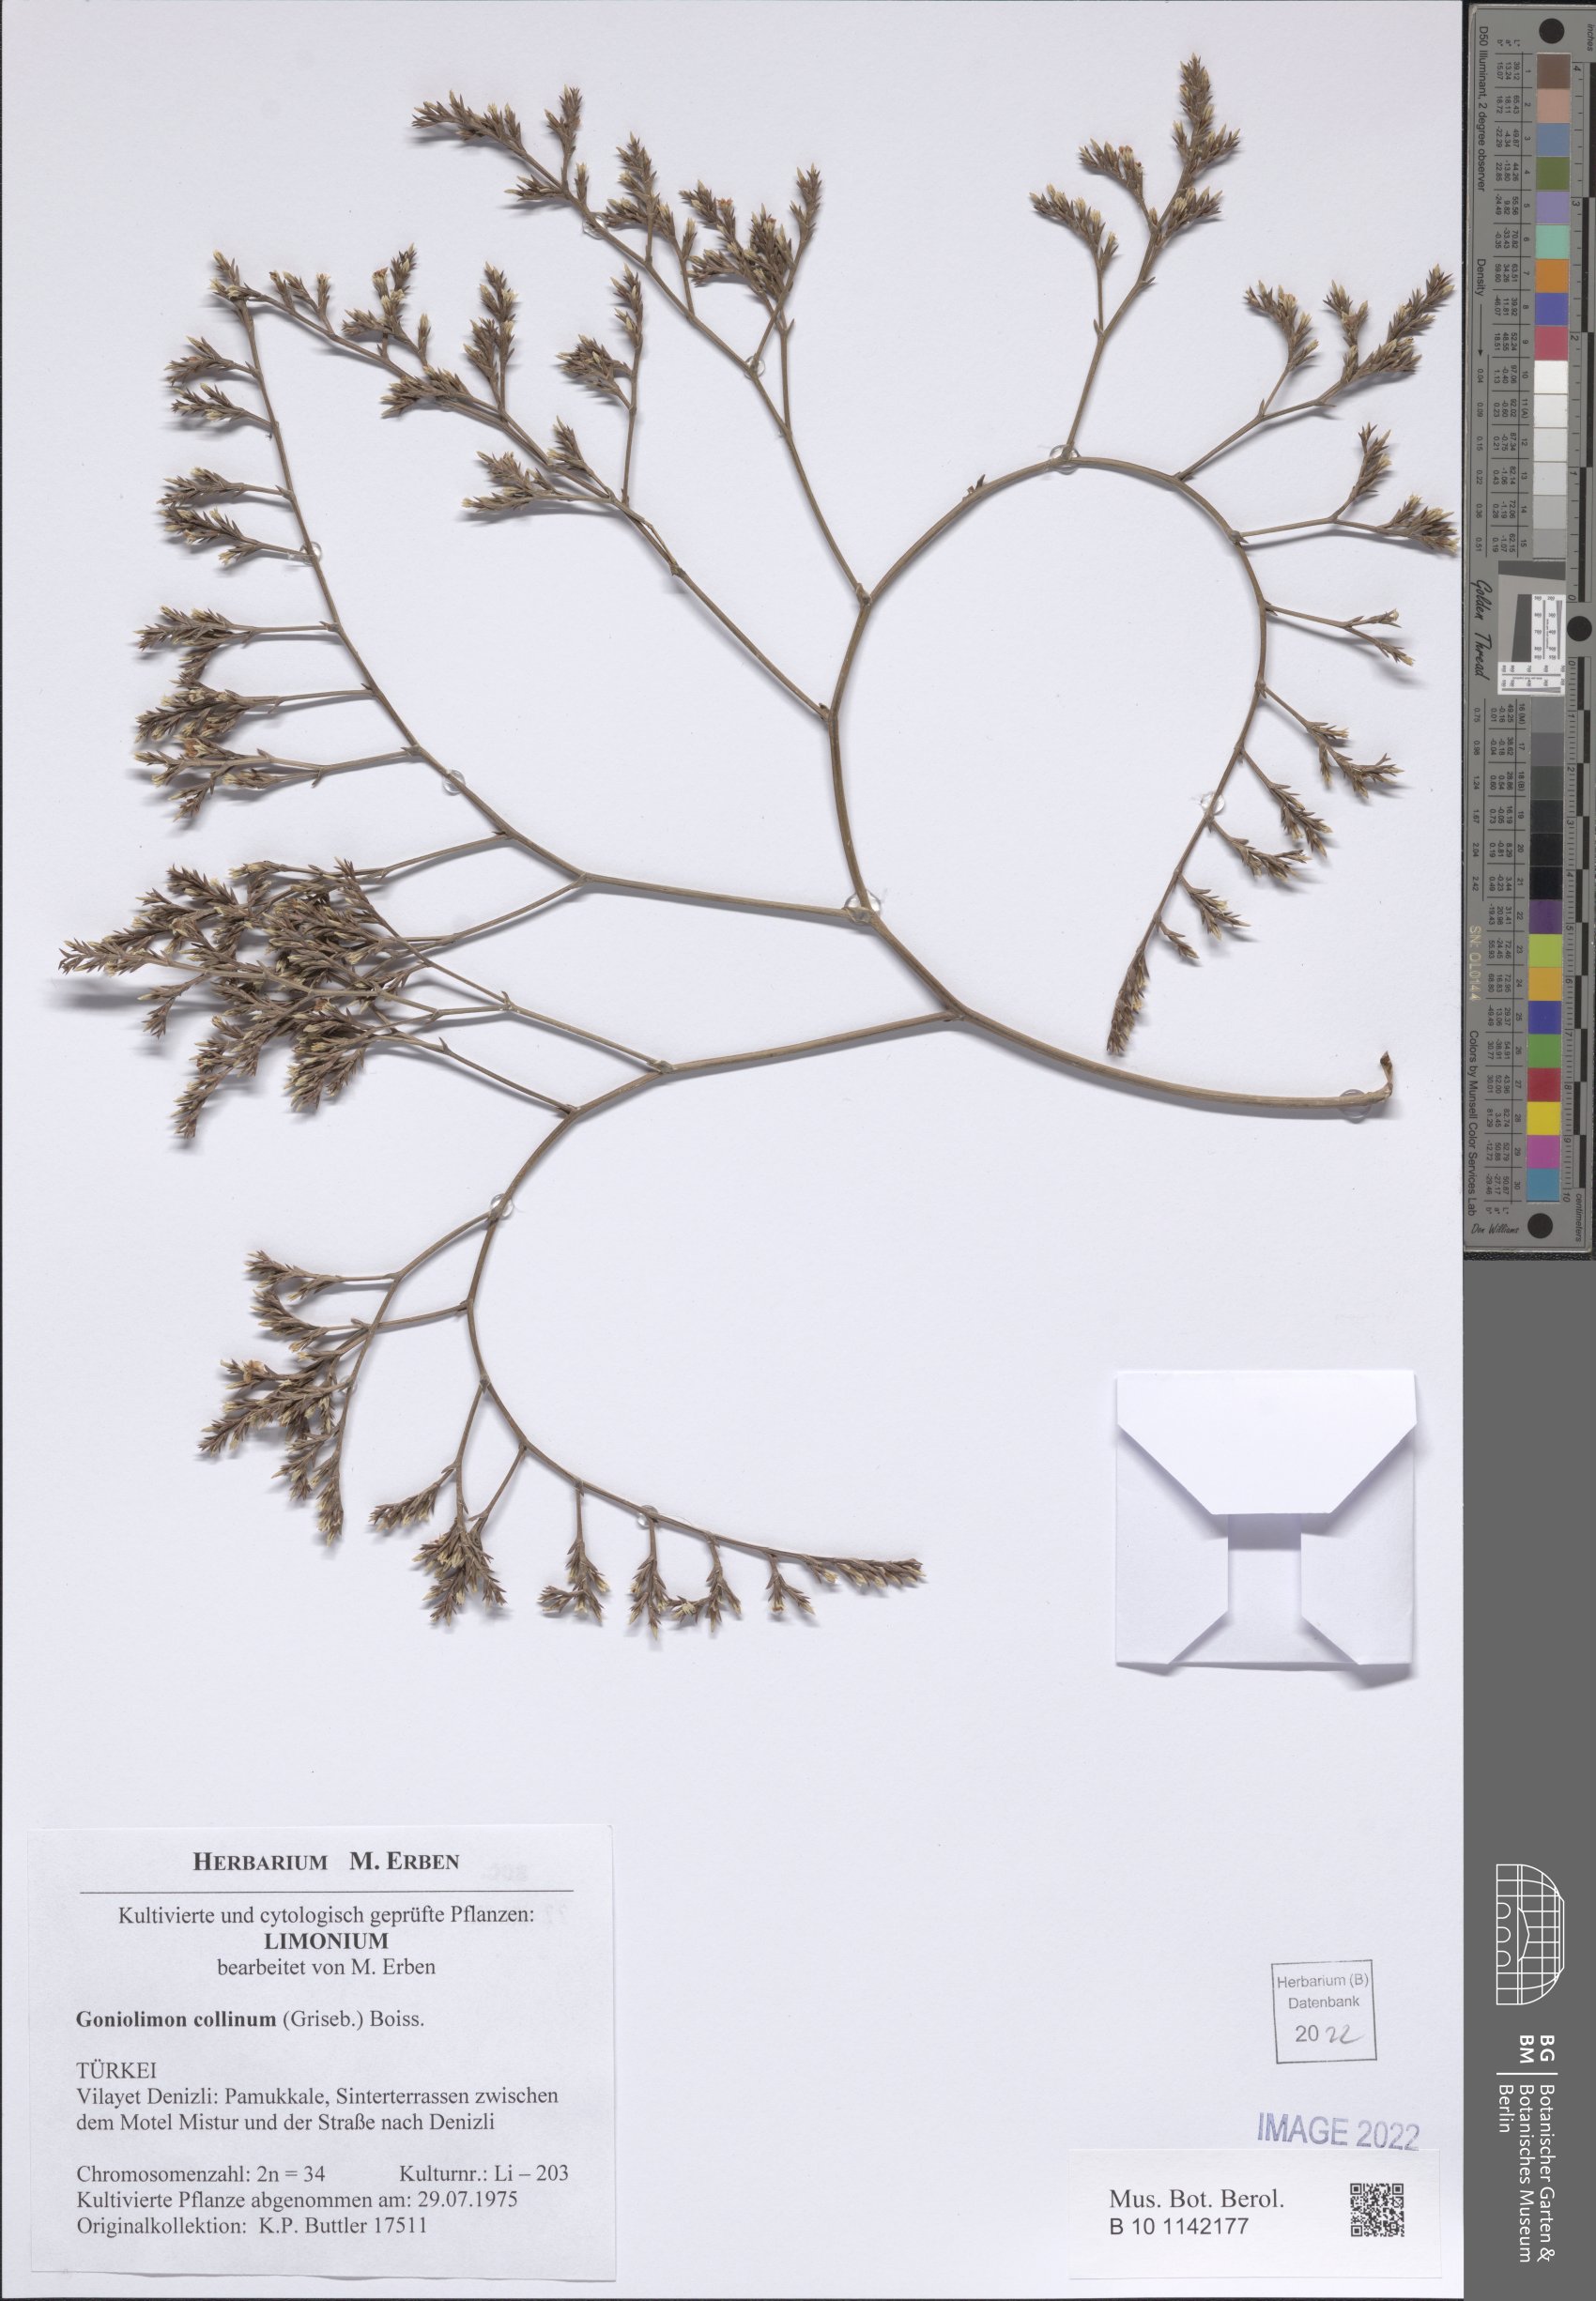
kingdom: Plantae
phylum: Tracheophyta
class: Magnoliopsida
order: Caryophyllales
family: Plumbaginaceae
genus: Goniolimon
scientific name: Goniolimon incanum
